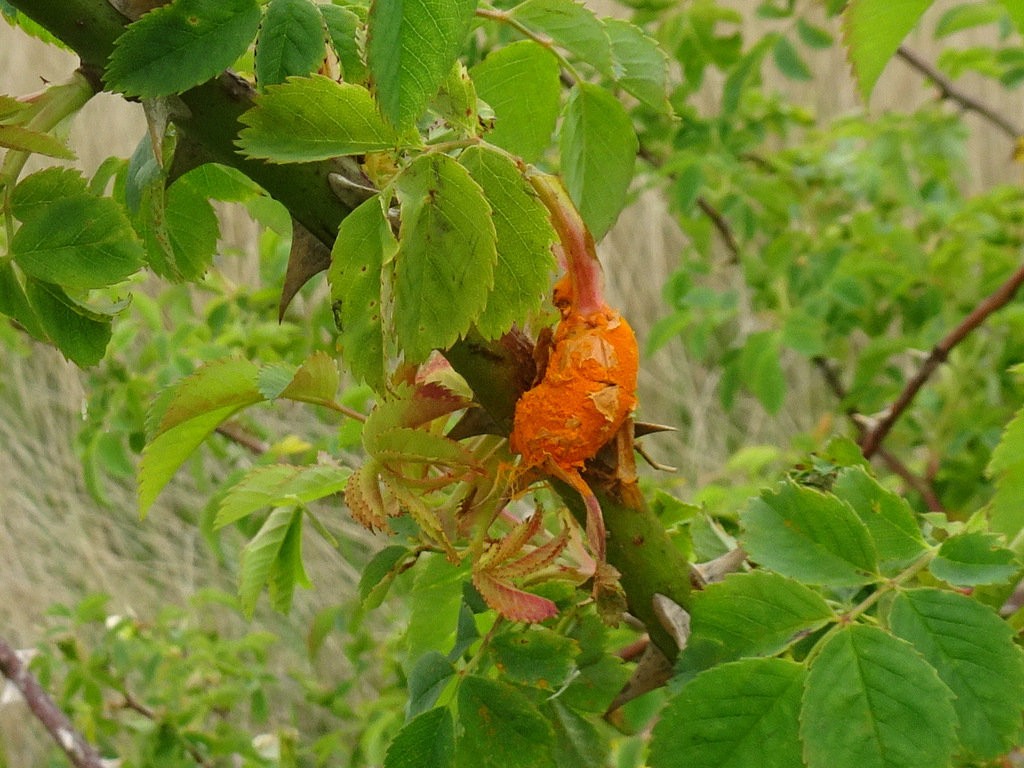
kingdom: Fungi
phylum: Basidiomycota
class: Pucciniomycetes
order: Pucciniales
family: Phragmidiaceae
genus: Phragmidium
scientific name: Phragmidium
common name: flercellerust
